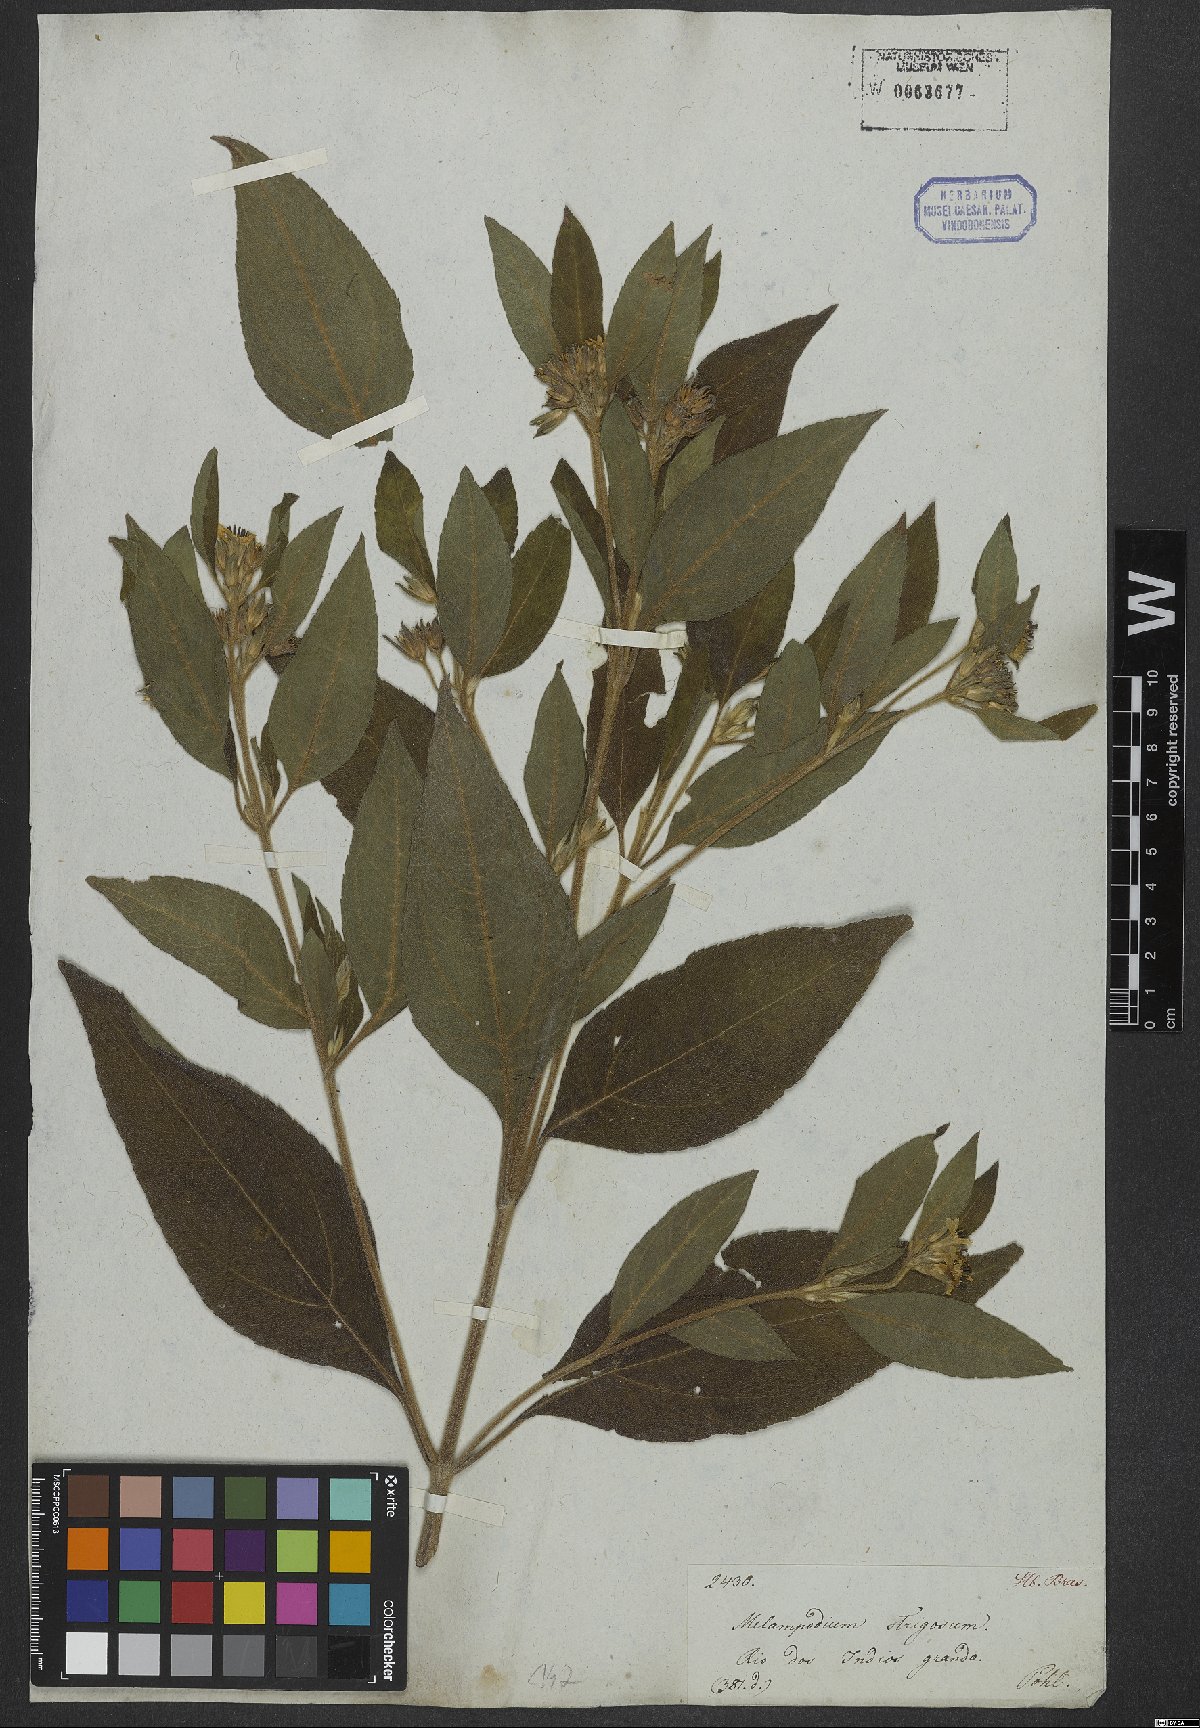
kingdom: Plantae
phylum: Tracheophyta
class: Magnoliopsida
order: Asterales
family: Asteraceae
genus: Melampodium
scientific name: Melampodium strigosum
